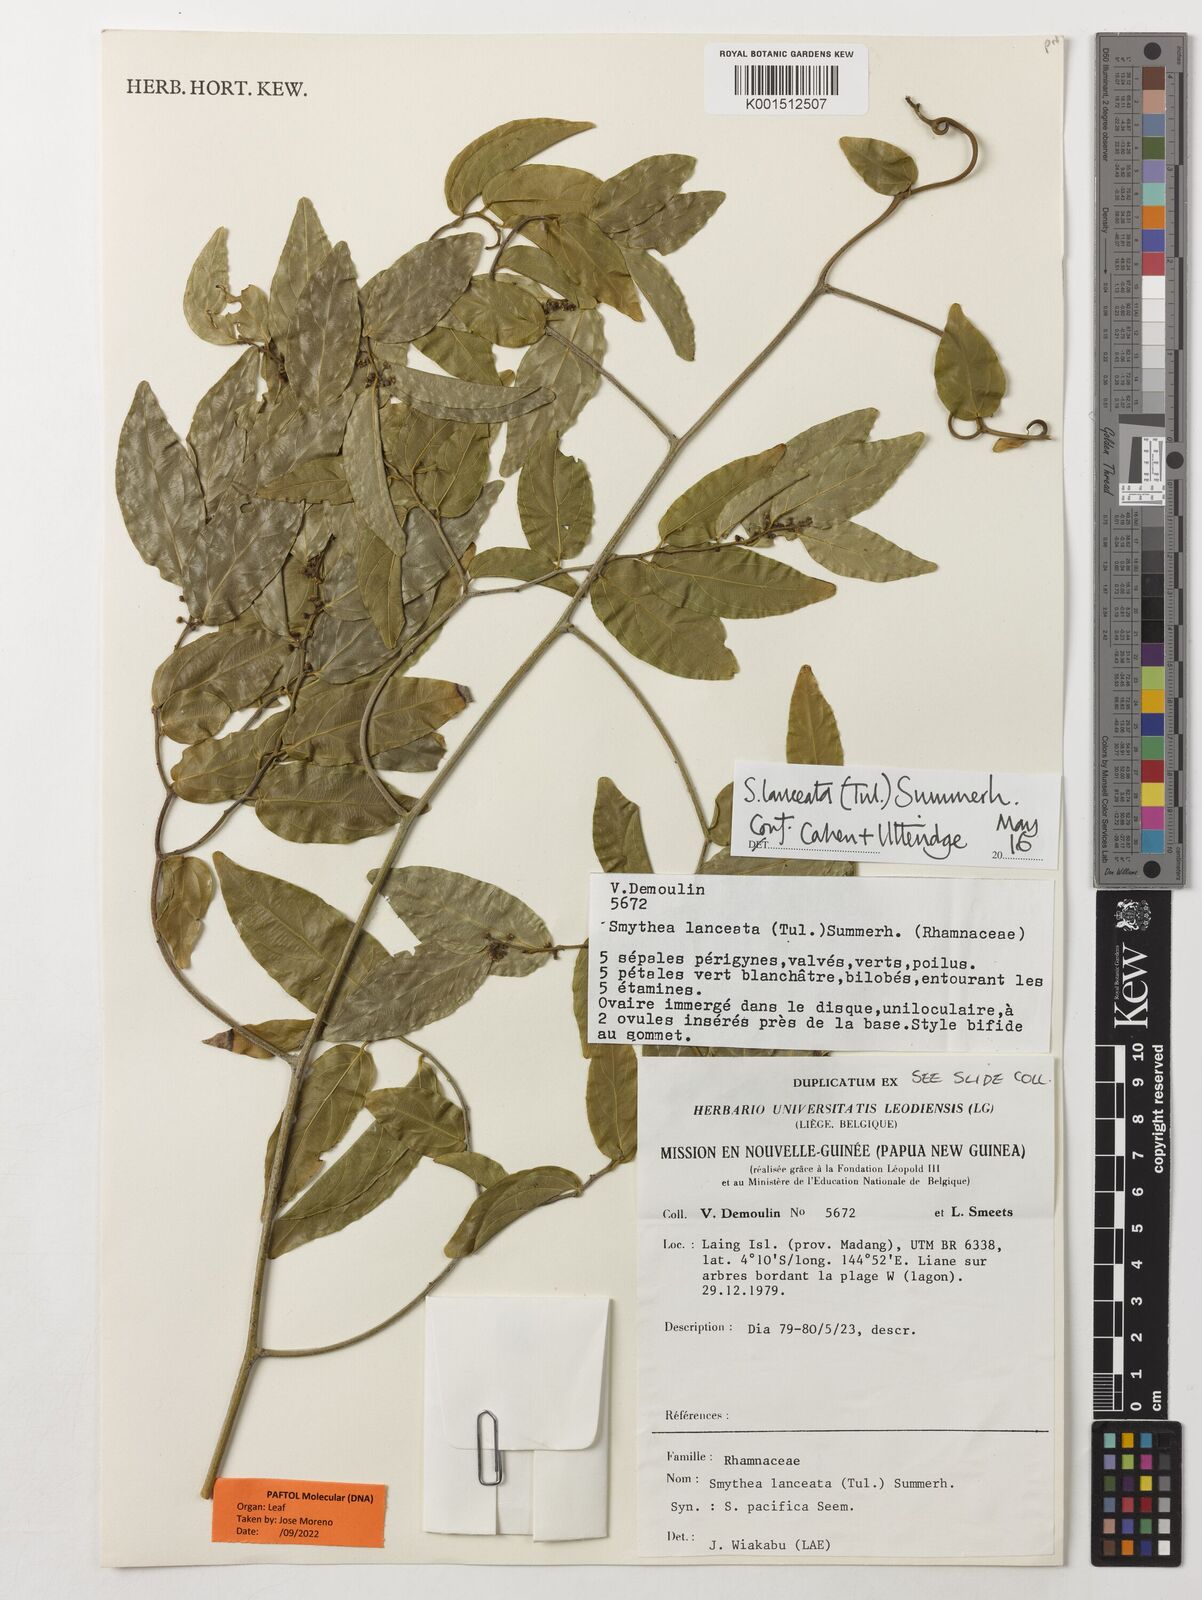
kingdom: Plantae
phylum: Tracheophyta
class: Magnoliopsida
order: Rosales
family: Rhamnaceae
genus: Smythea
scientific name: Smythea lanceata
